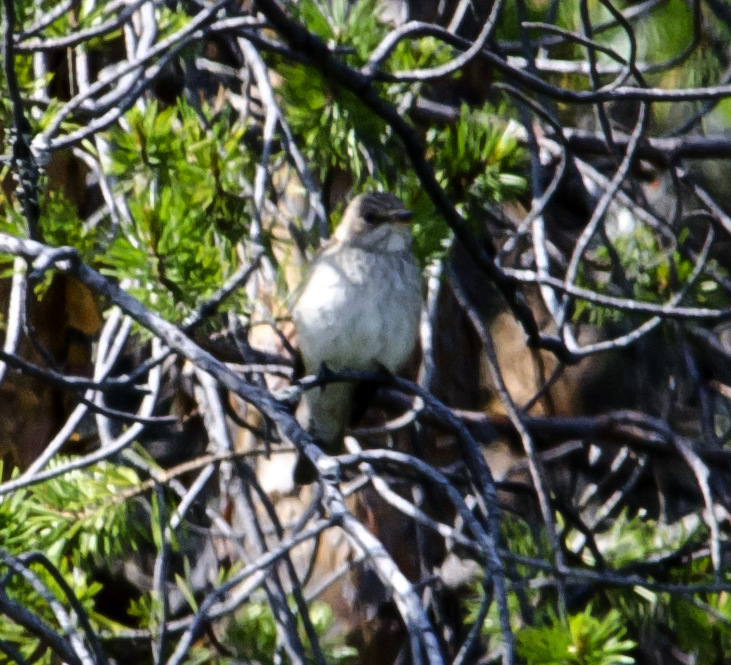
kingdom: Animalia
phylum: Chordata
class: Aves
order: Passeriformes
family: Muscicapidae
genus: Muscicapa
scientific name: Muscicapa striata
